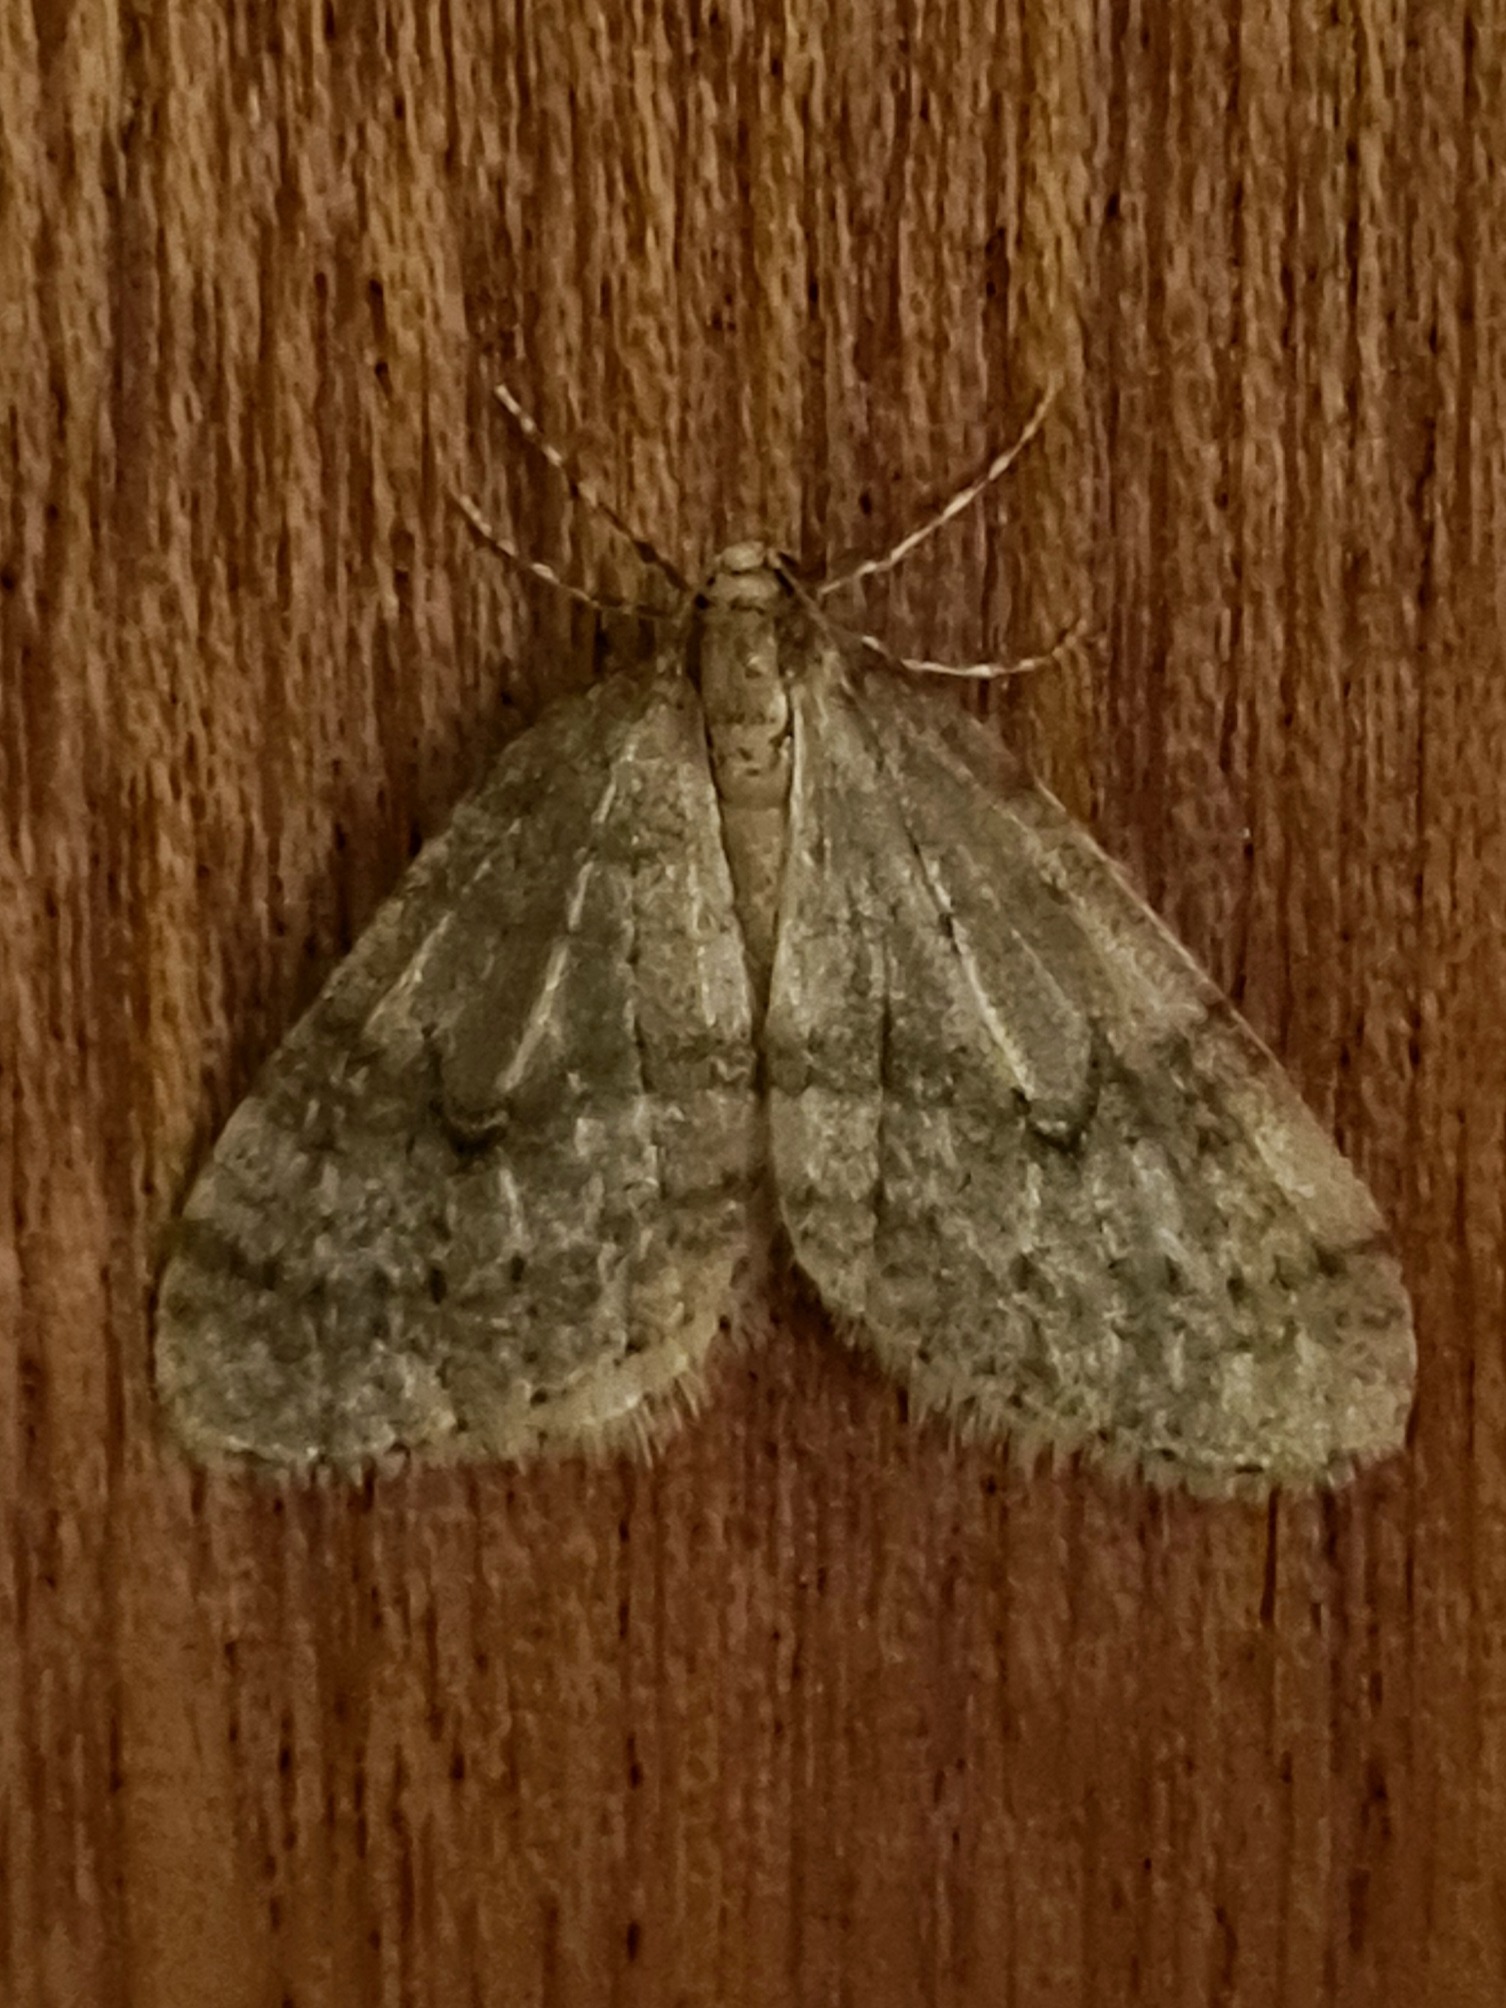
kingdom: Animalia
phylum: Arthropoda
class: Insecta
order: Lepidoptera
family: Geometridae
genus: Operophtera
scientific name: Operophtera brumata
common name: Lille frostmåler
